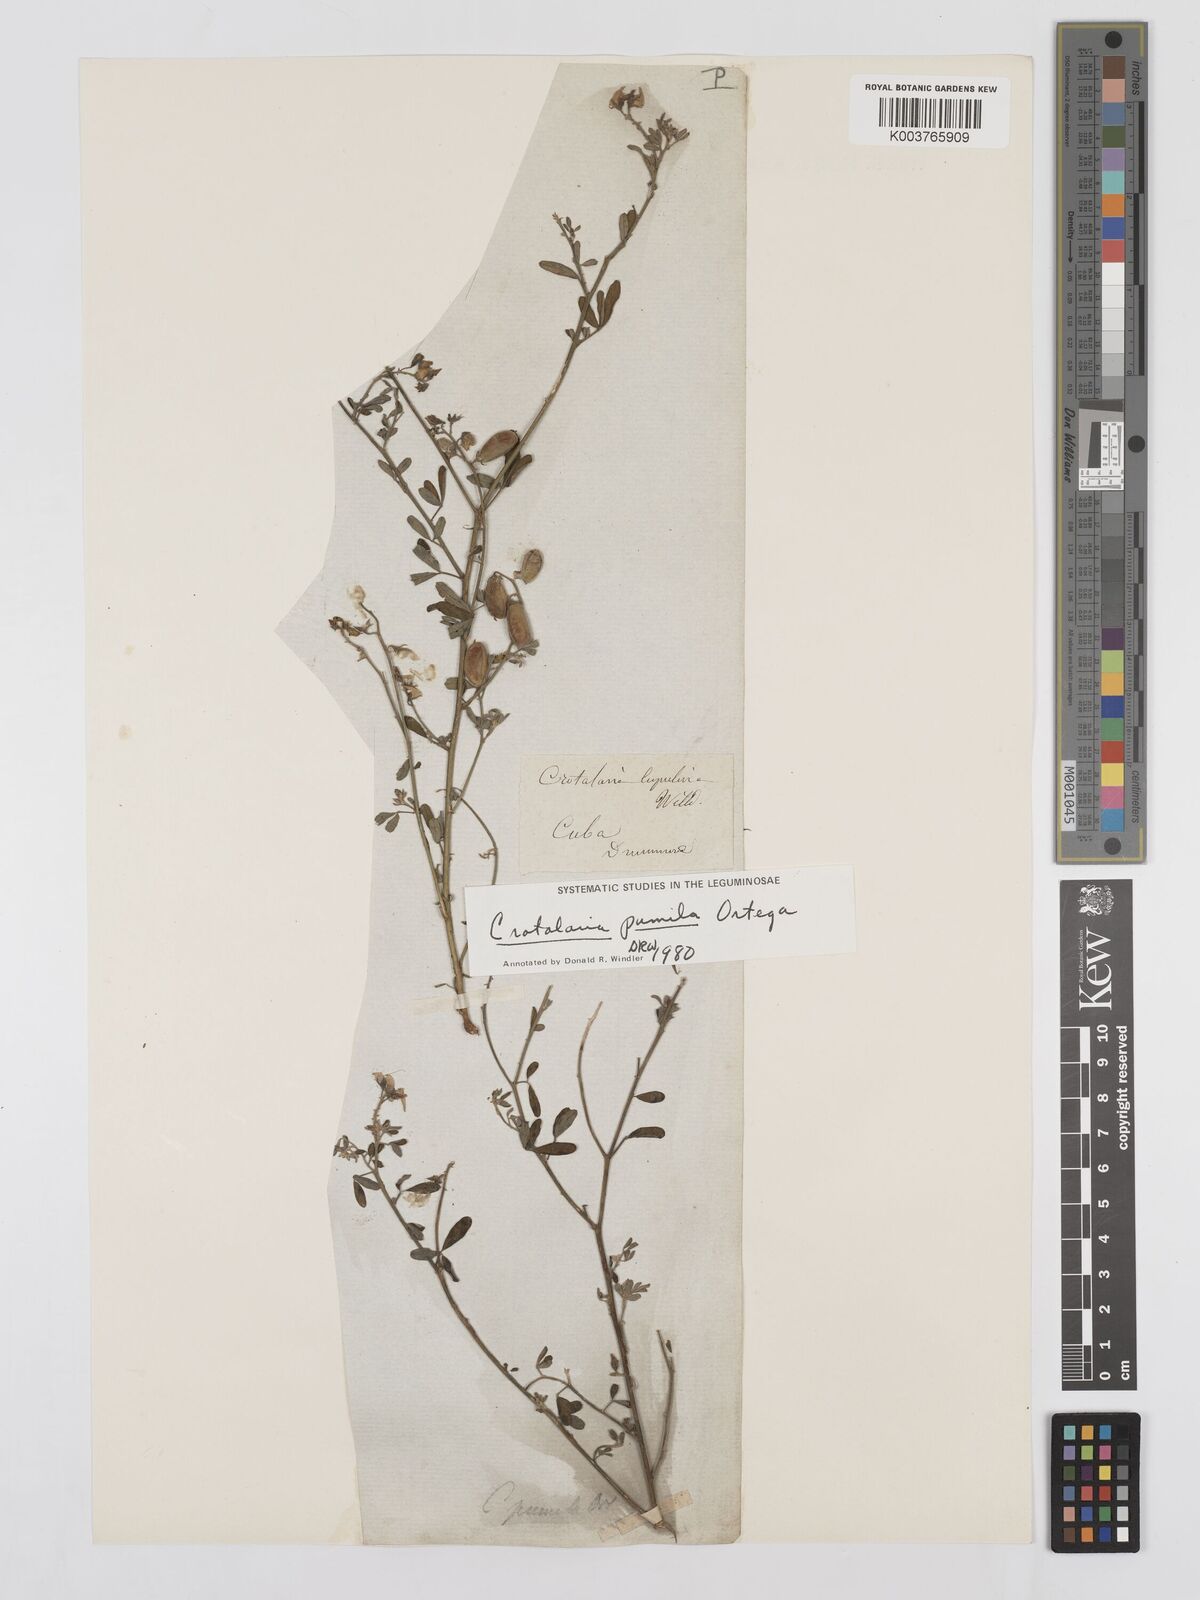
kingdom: Plantae
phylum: Tracheophyta
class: Magnoliopsida
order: Fabales
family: Fabaceae
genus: Crotalaria
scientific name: Crotalaria pumila
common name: Low rattlebox
